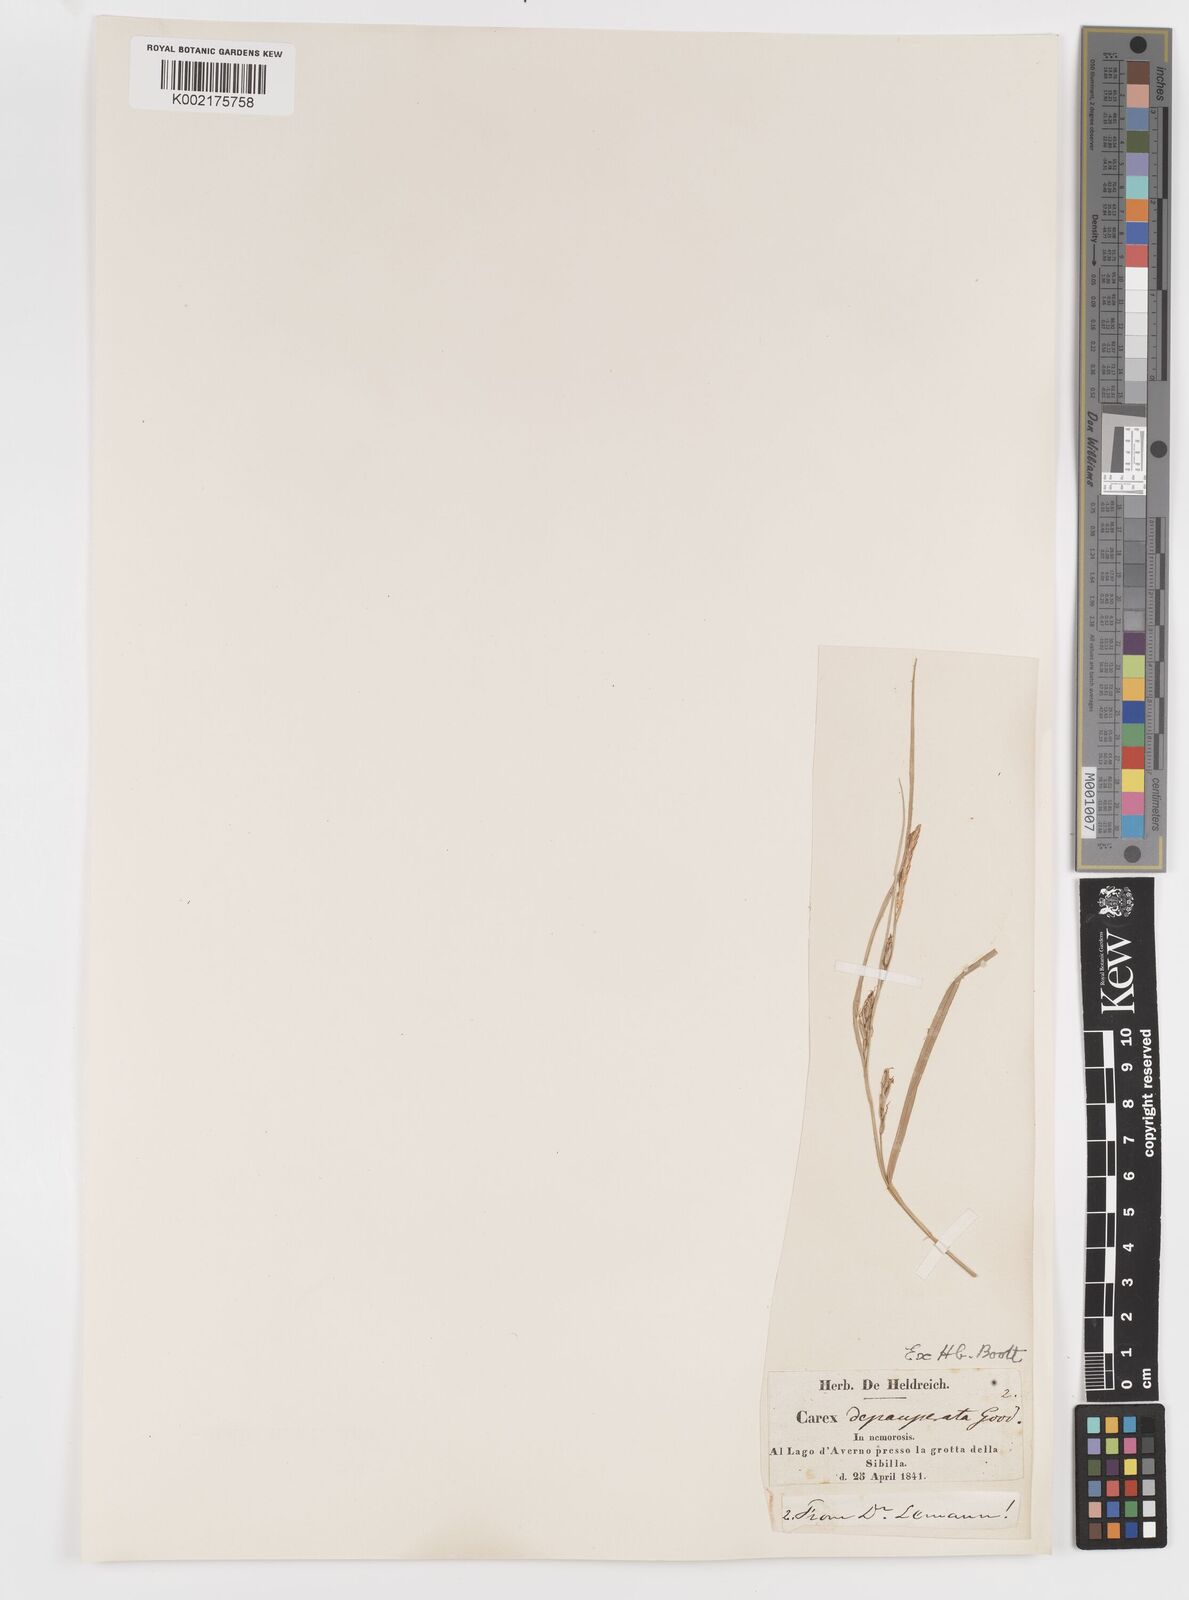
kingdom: Plantae
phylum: Tracheophyta
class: Liliopsida
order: Poales
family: Cyperaceae
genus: Carex
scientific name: Carex
